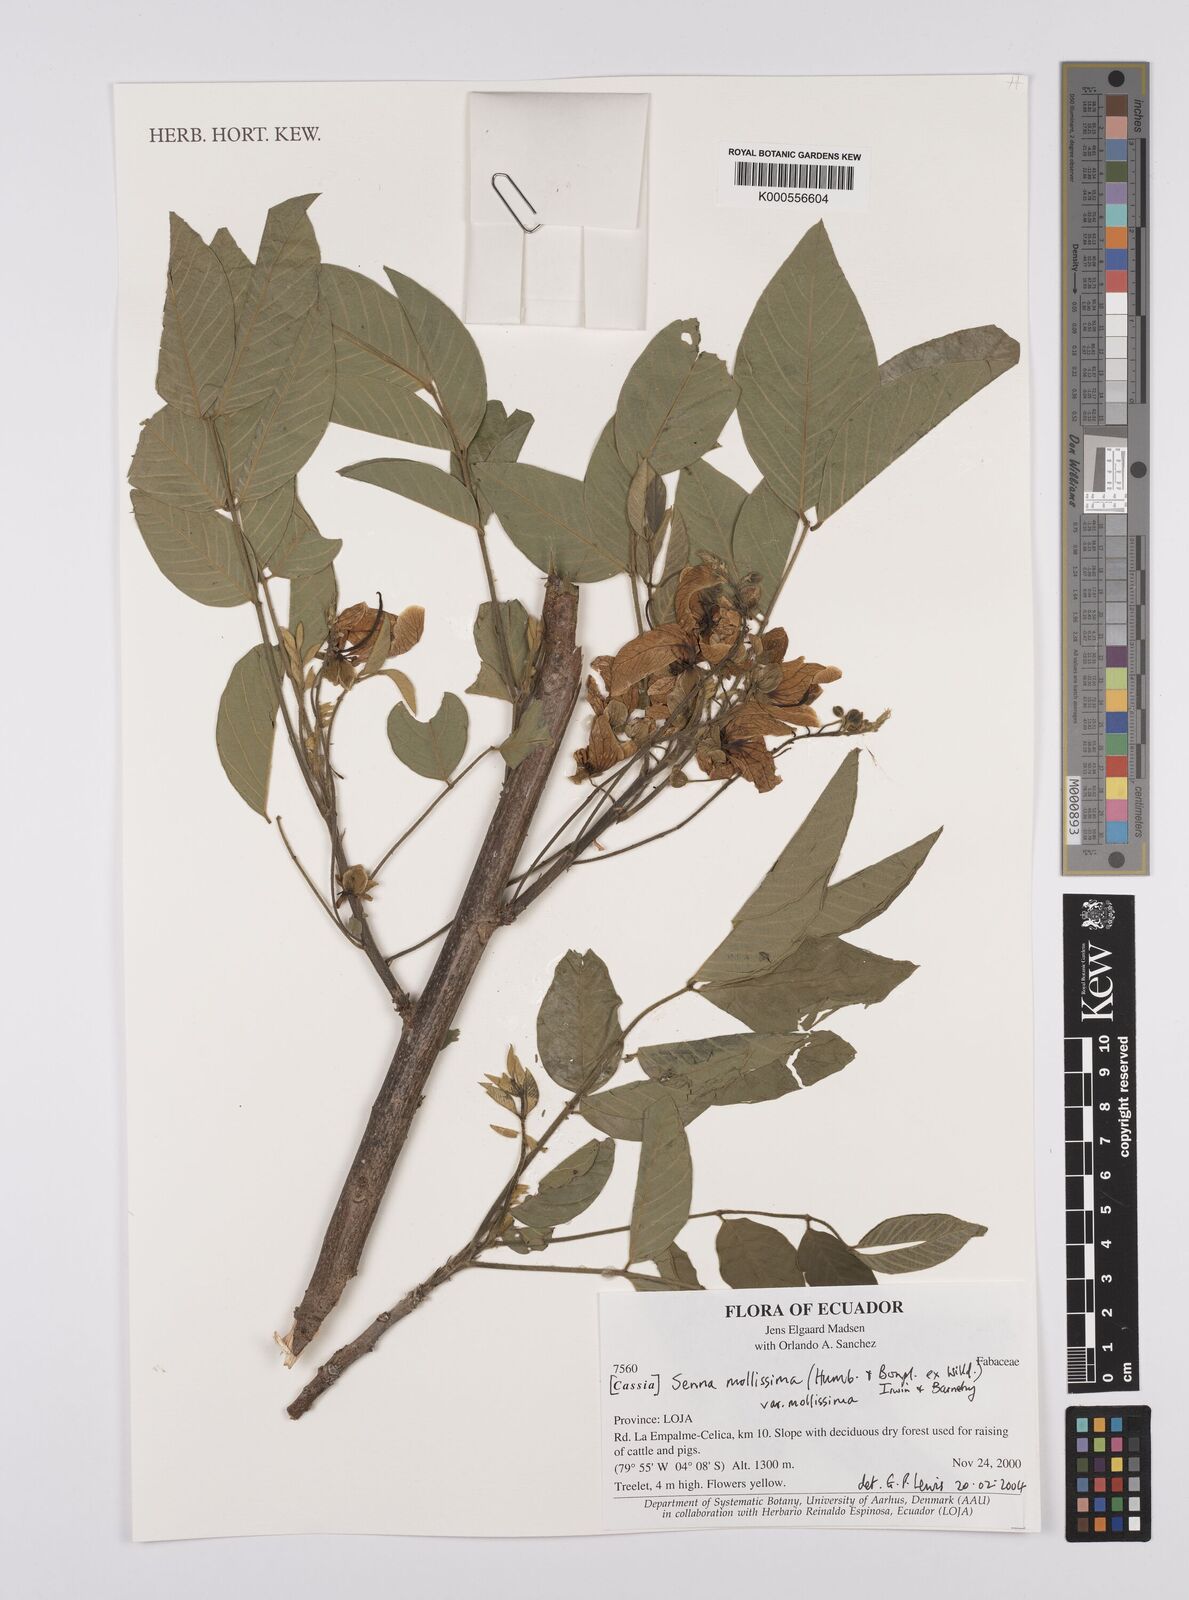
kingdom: Plantae
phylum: Tracheophyta
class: Magnoliopsida
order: Fabales
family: Fabaceae
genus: Senna
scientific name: Senna mollissima
